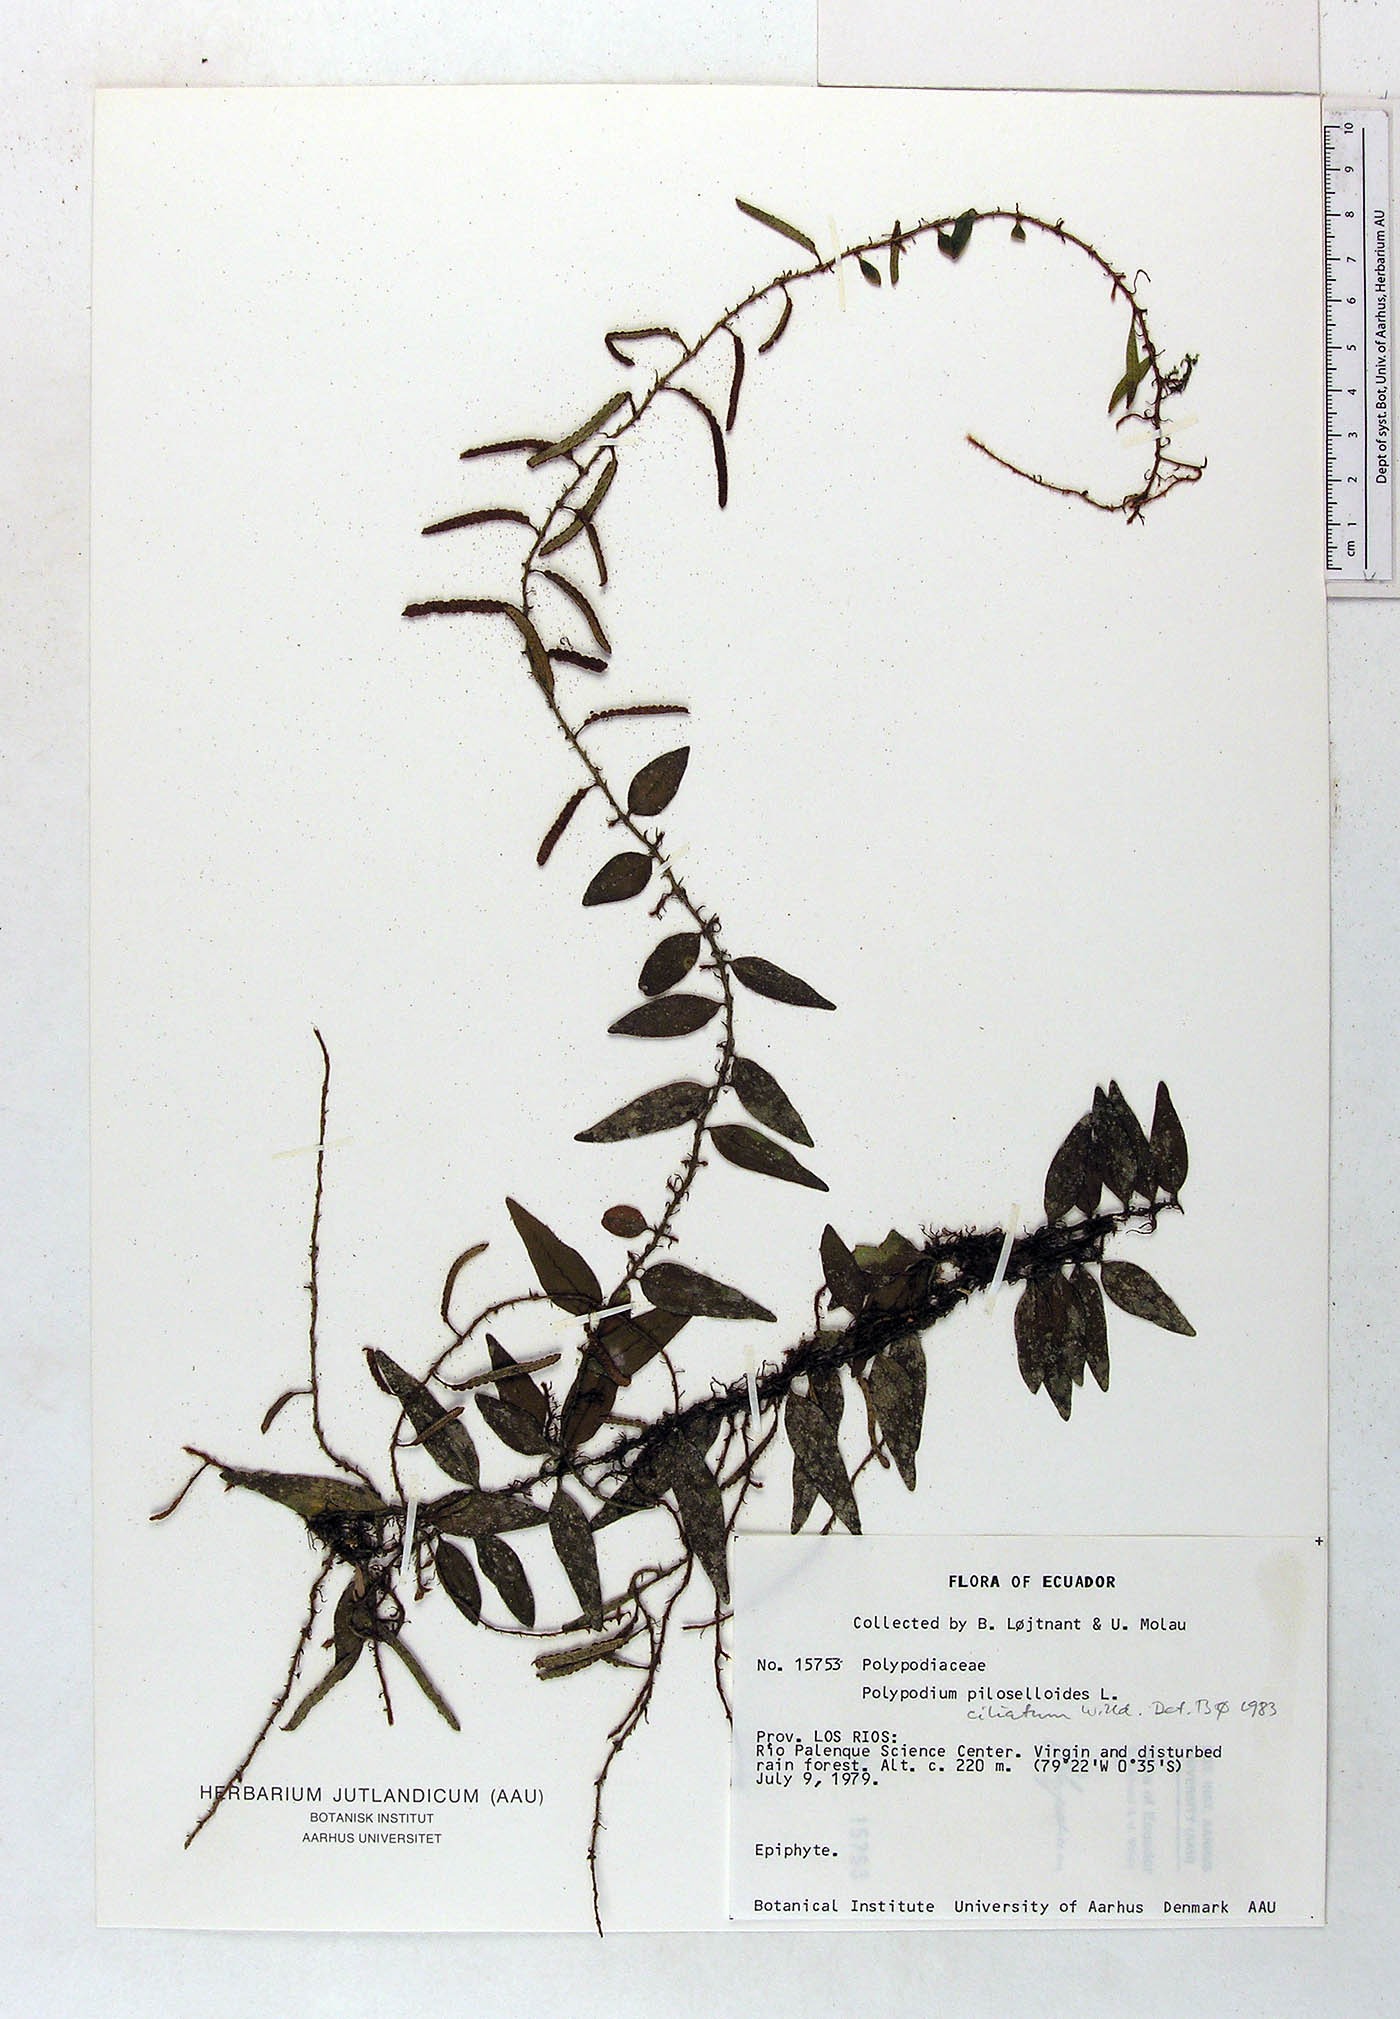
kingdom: Plantae
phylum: Tracheophyta
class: Polypodiopsida
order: Polypodiales
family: Polypodiaceae
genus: Microgramma
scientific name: Microgramma piloselloides
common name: Hairy snakefern
